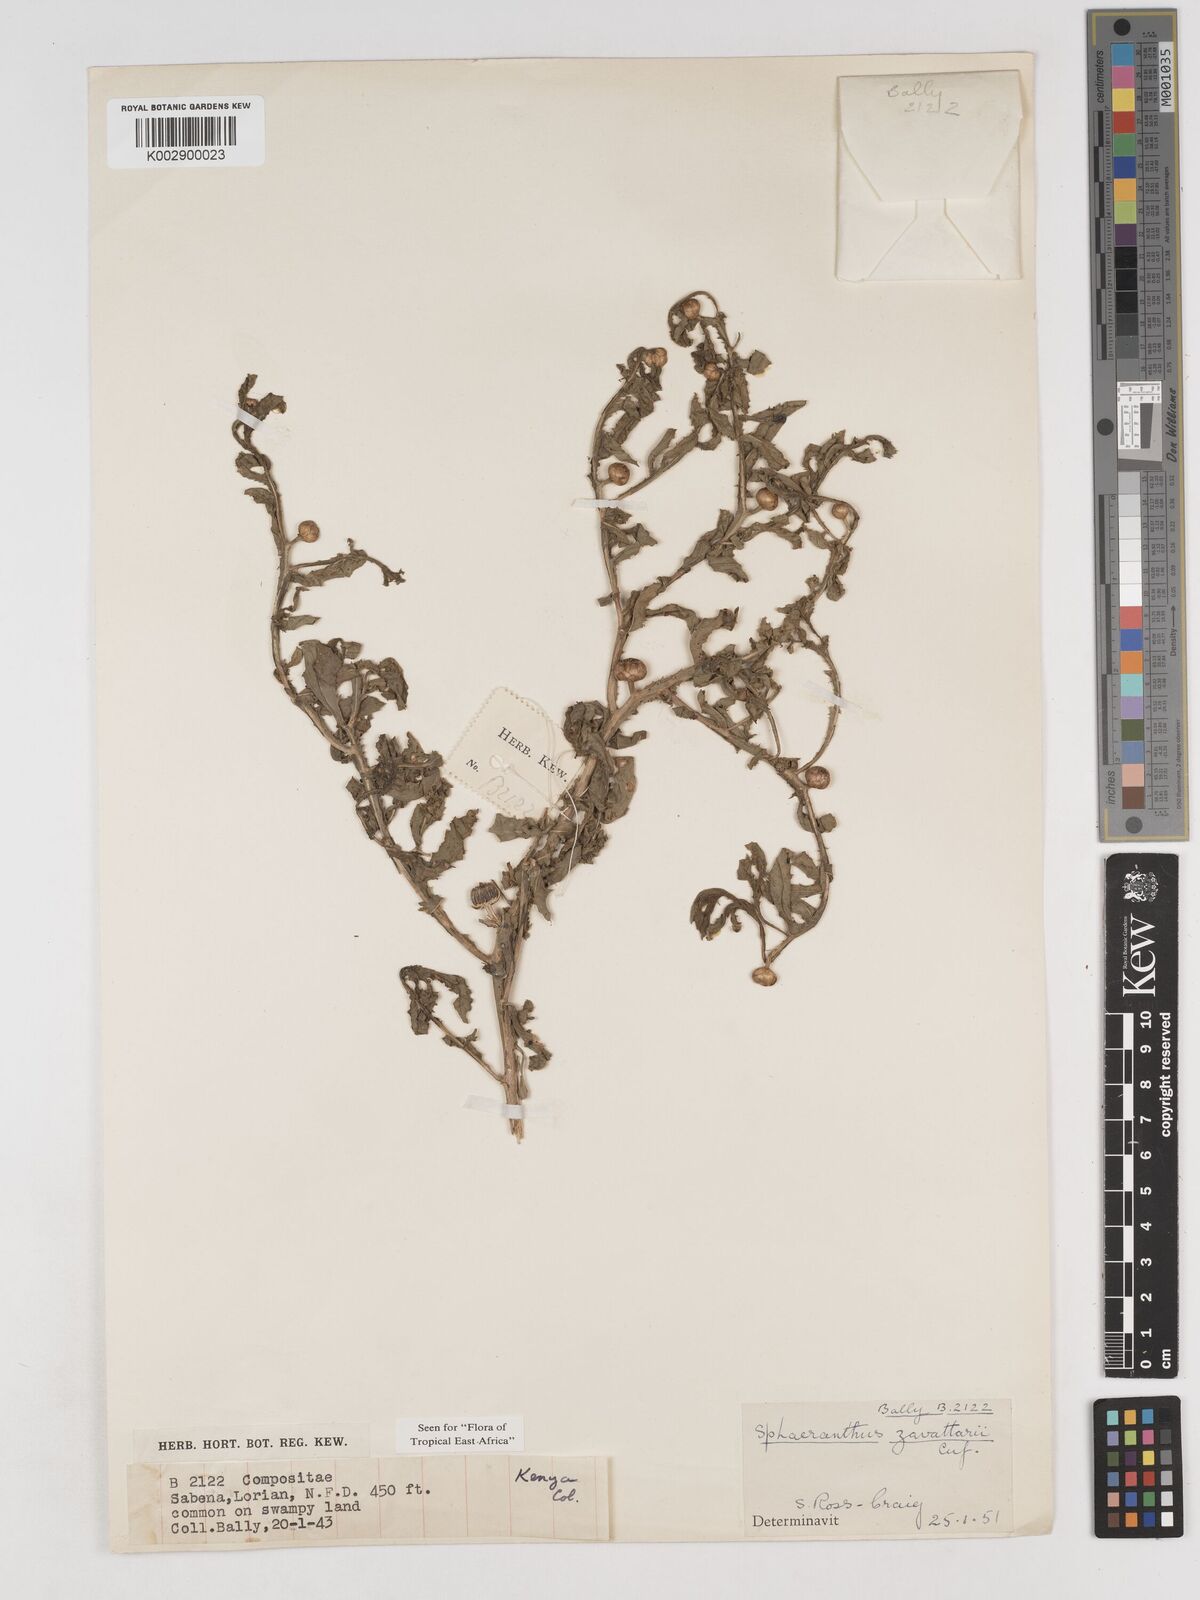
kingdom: Plantae
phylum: Tracheophyta
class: Magnoliopsida
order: Asterales
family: Asteraceae
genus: Sphaeranthus
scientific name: Sphaeranthus zavattarii
